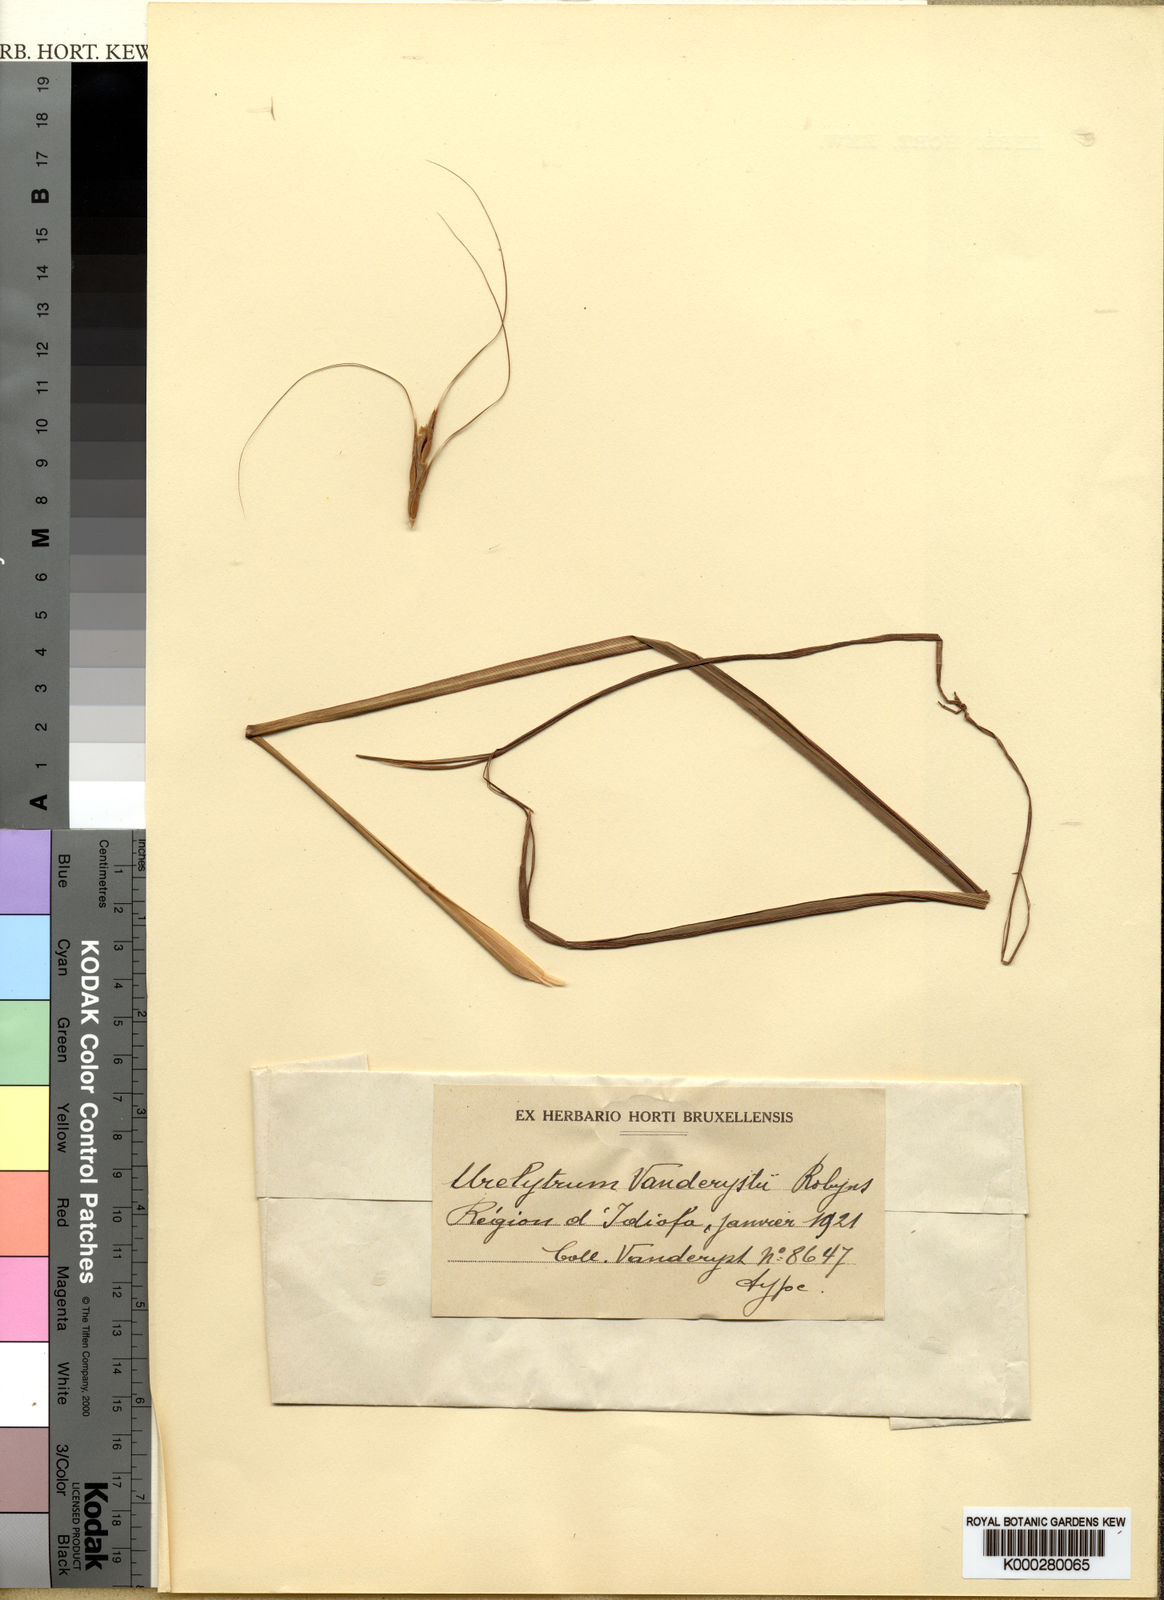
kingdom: Plantae
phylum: Tracheophyta
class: Liliopsida
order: Poales
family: Poaceae
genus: Urelytrum
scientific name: Urelytrum agropyroides
